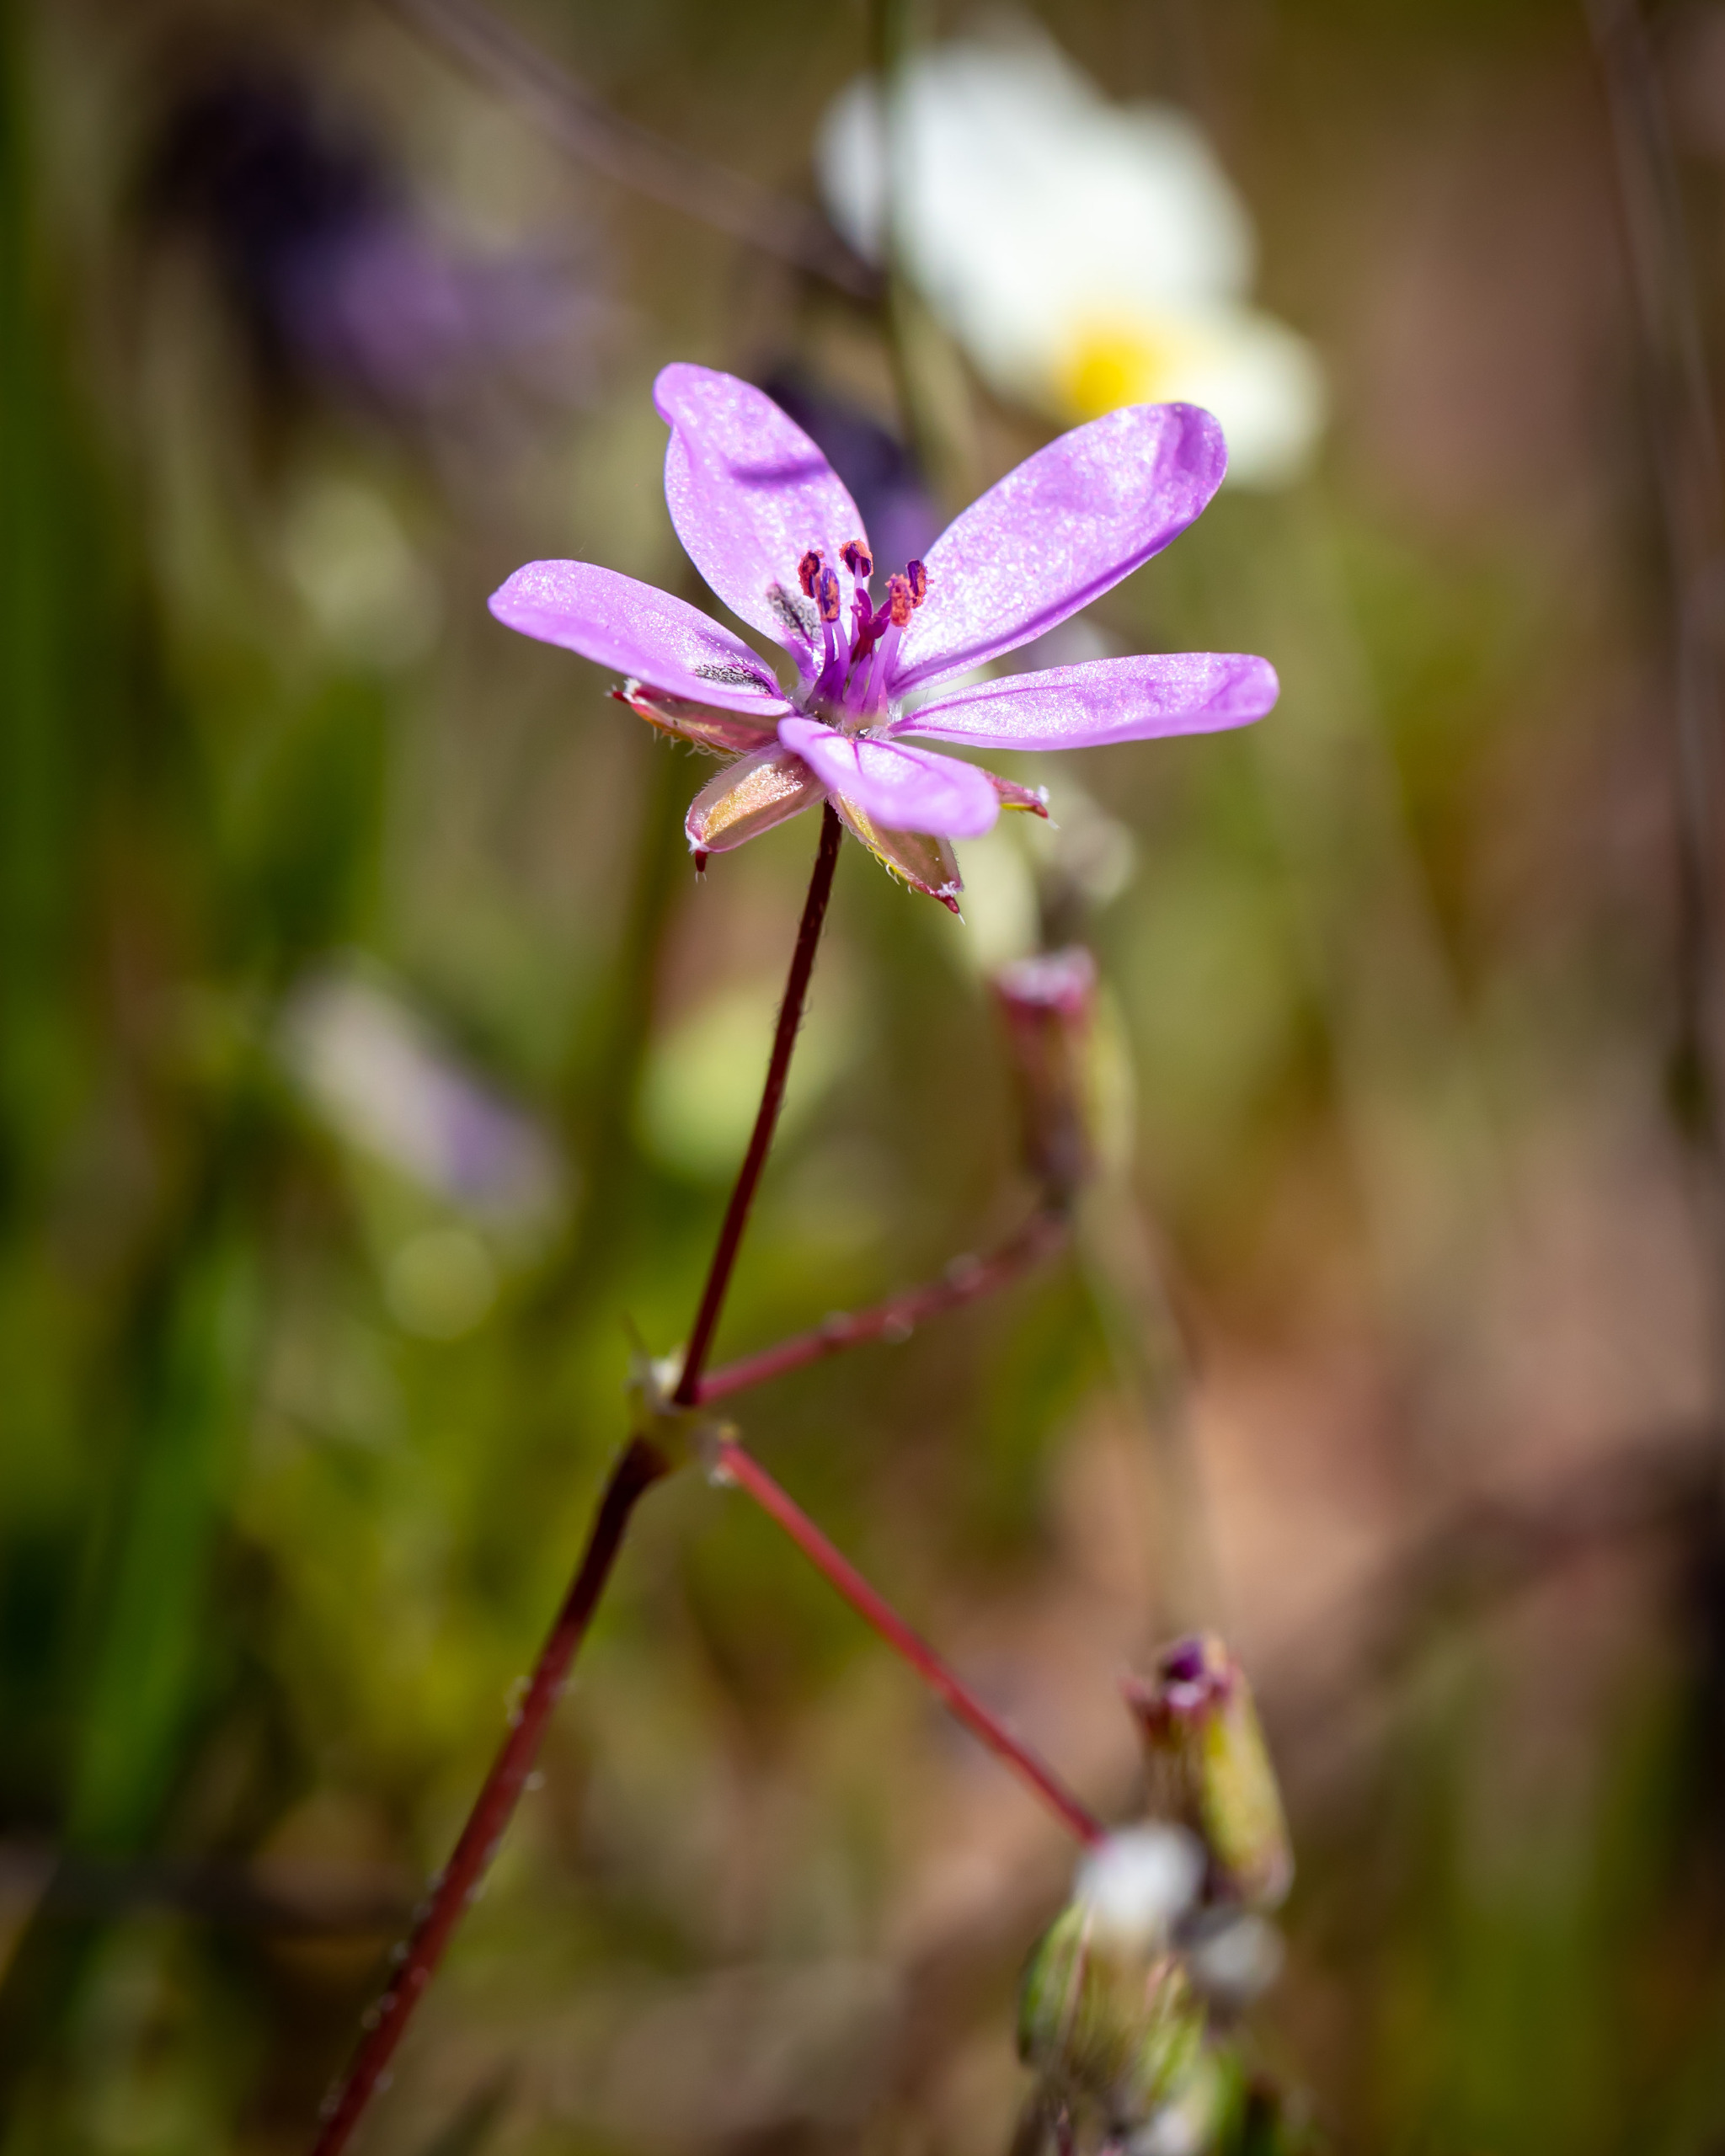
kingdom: Plantae
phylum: Tracheophyta
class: Magnoliopsida
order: Geraniales
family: Geraniaceae
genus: Erodium
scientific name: Erodium cicutarium
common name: Hejrenæb
